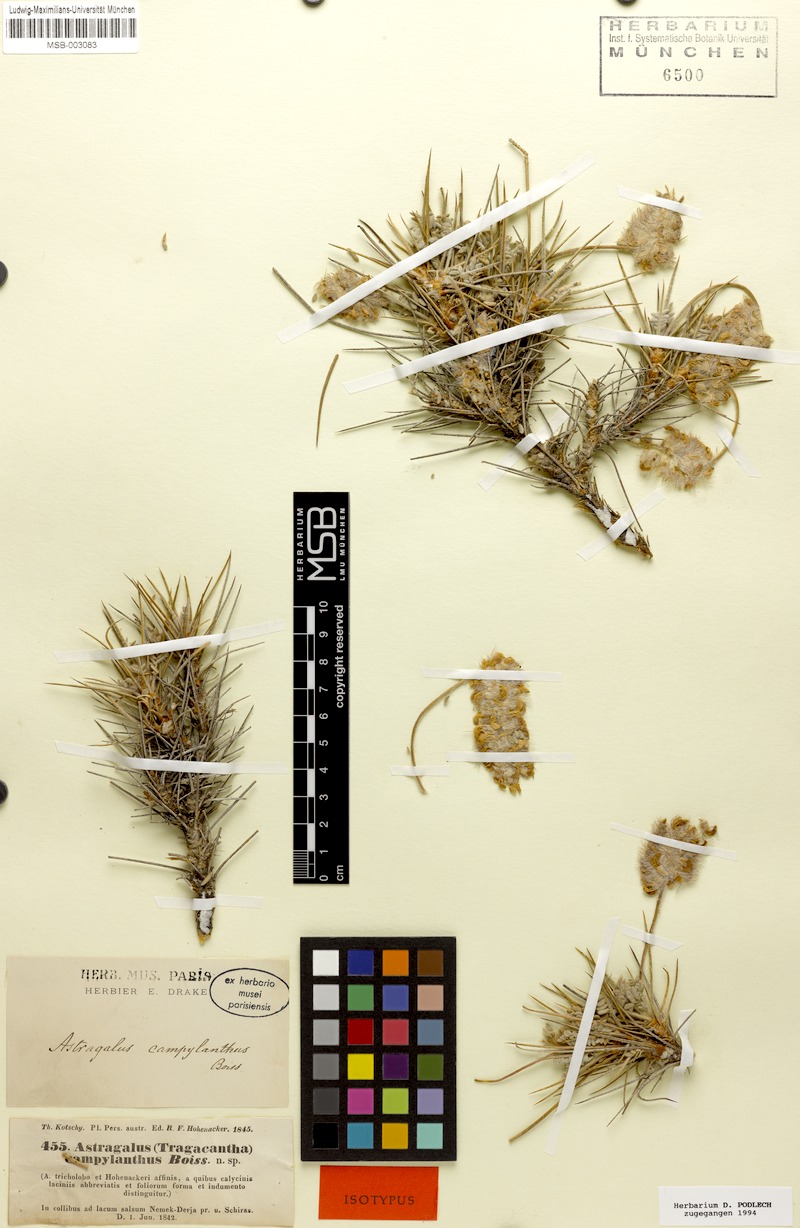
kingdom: Plantae
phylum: Tracheophyta
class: Magnoliopsida
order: Fabales
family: Fabaceae
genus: Astragalus
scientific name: Astragalus campylanthus
